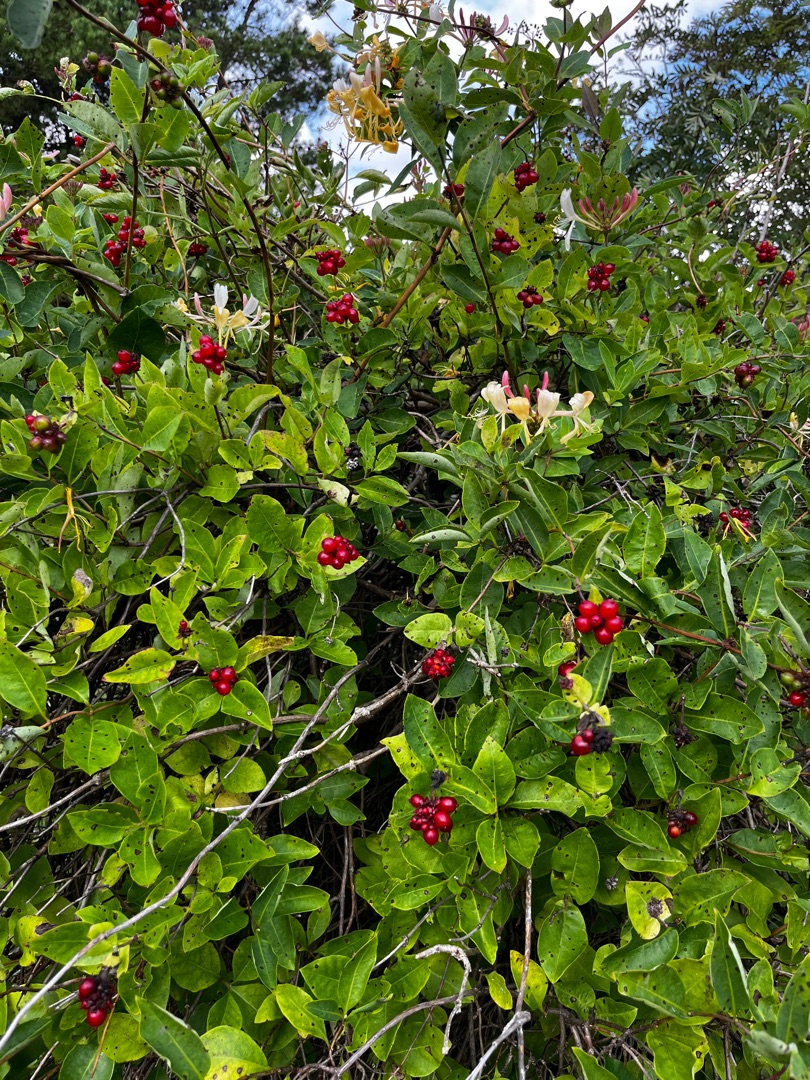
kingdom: Plantae
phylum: Tracheophyta
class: Magnoliopsida
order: Dipsacales
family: Caprifoliaceae
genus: Lonicera
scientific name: Lonicera periclymenum
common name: Almindelig gedeblad
